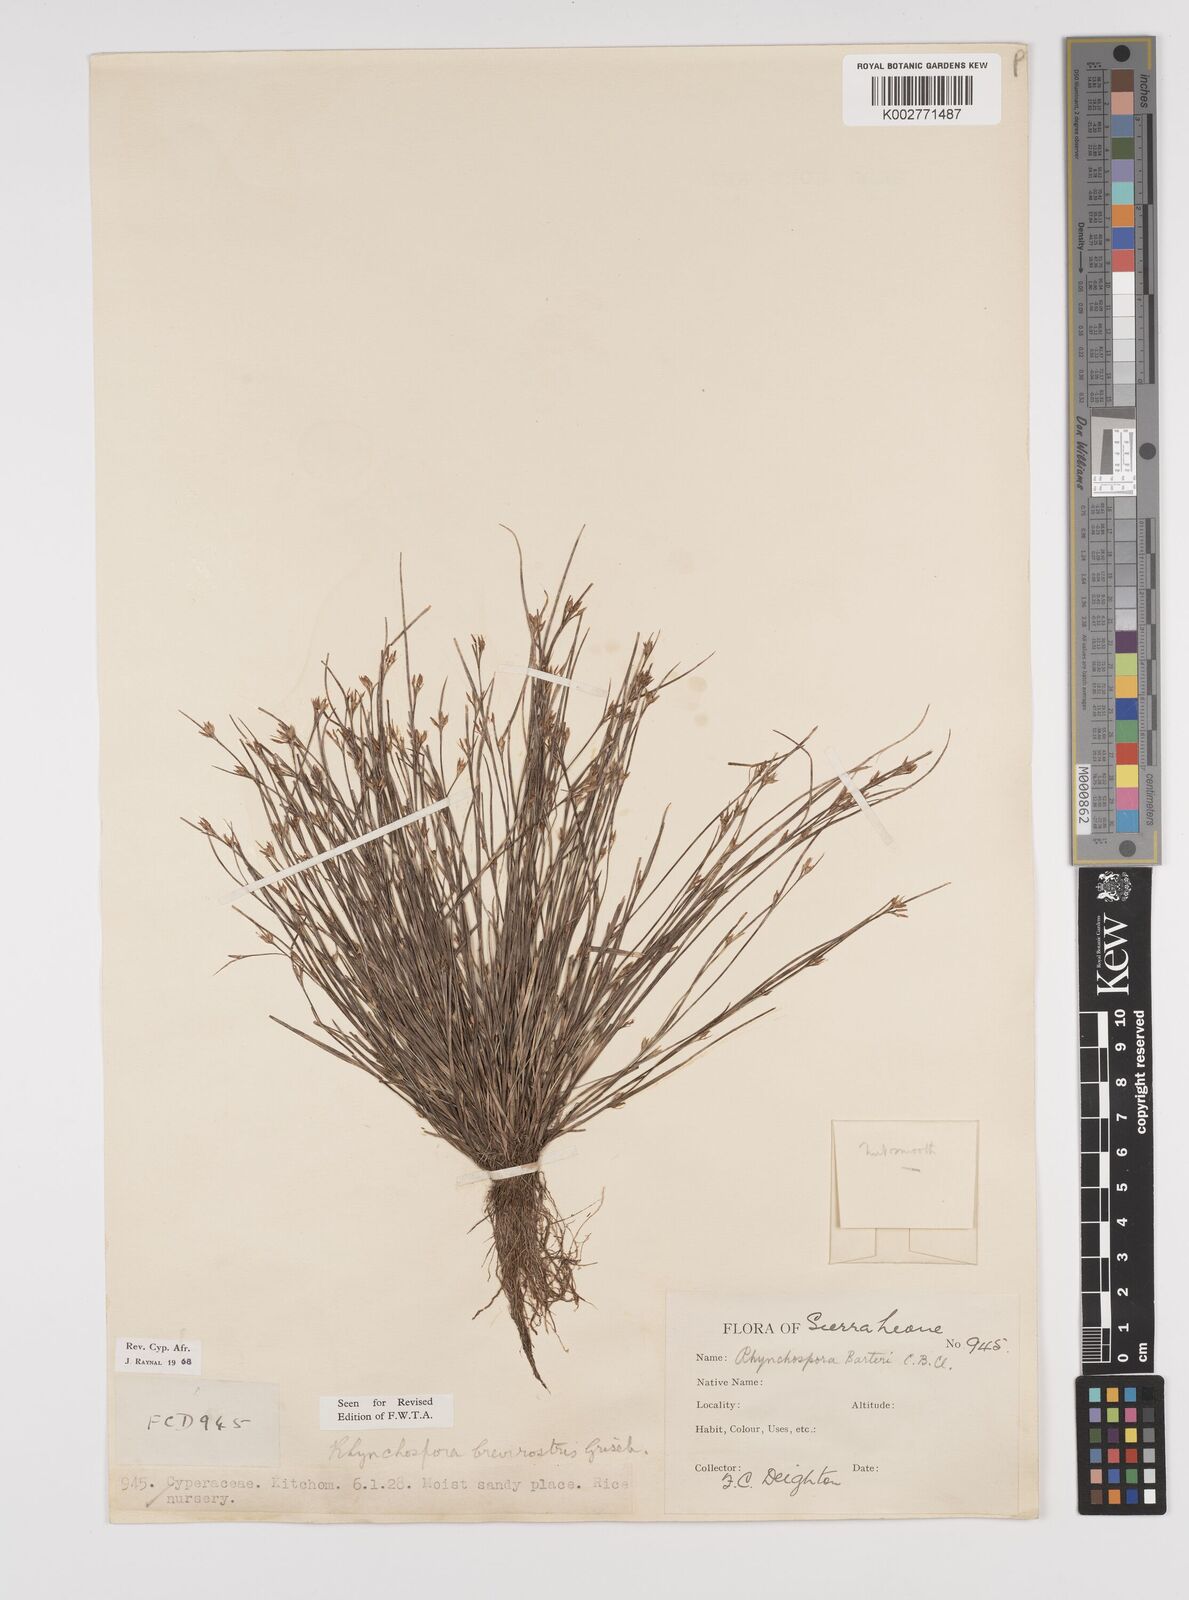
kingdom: Plantae
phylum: Tracheophyta
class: Liliopsida
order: Poales
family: Cyperaceae
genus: Rhynchospora
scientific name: Rhynchospora brevirostris
